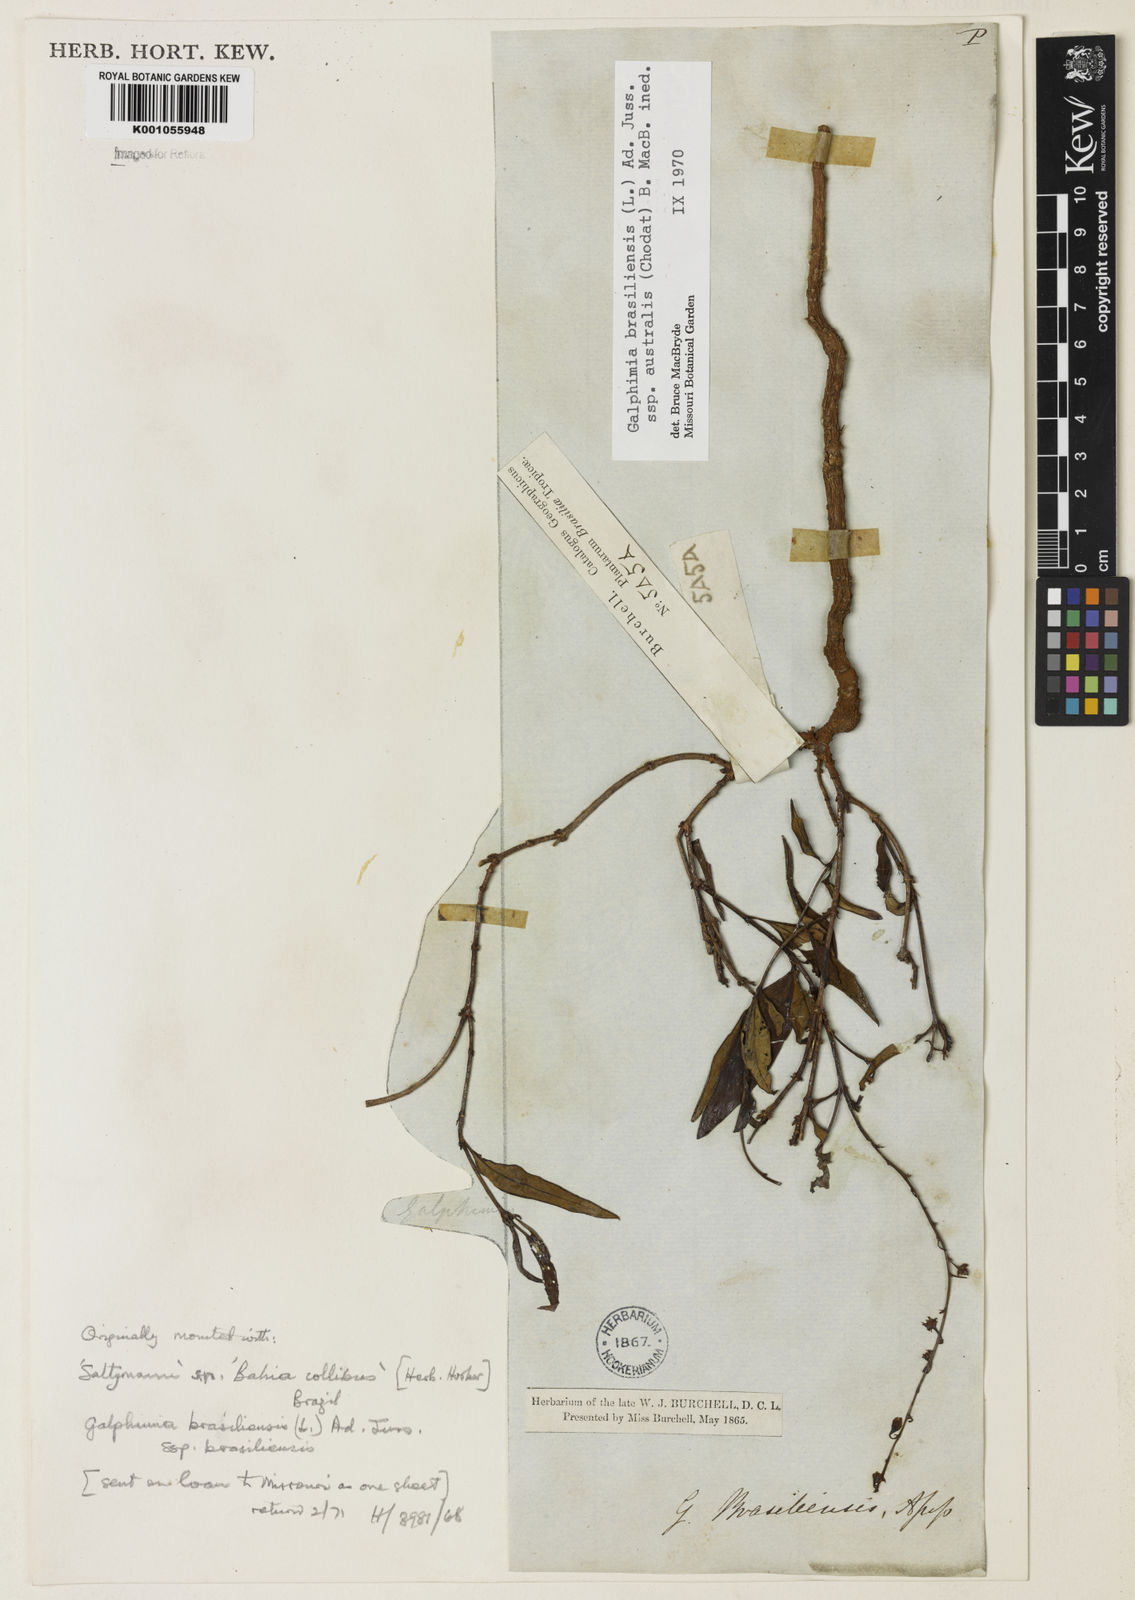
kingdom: Plantae
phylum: Tracheophyta
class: Magnoliopsida
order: Malpighiales
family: Malpighiaceae
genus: Galphimia
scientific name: Galphimia brasiliensis
